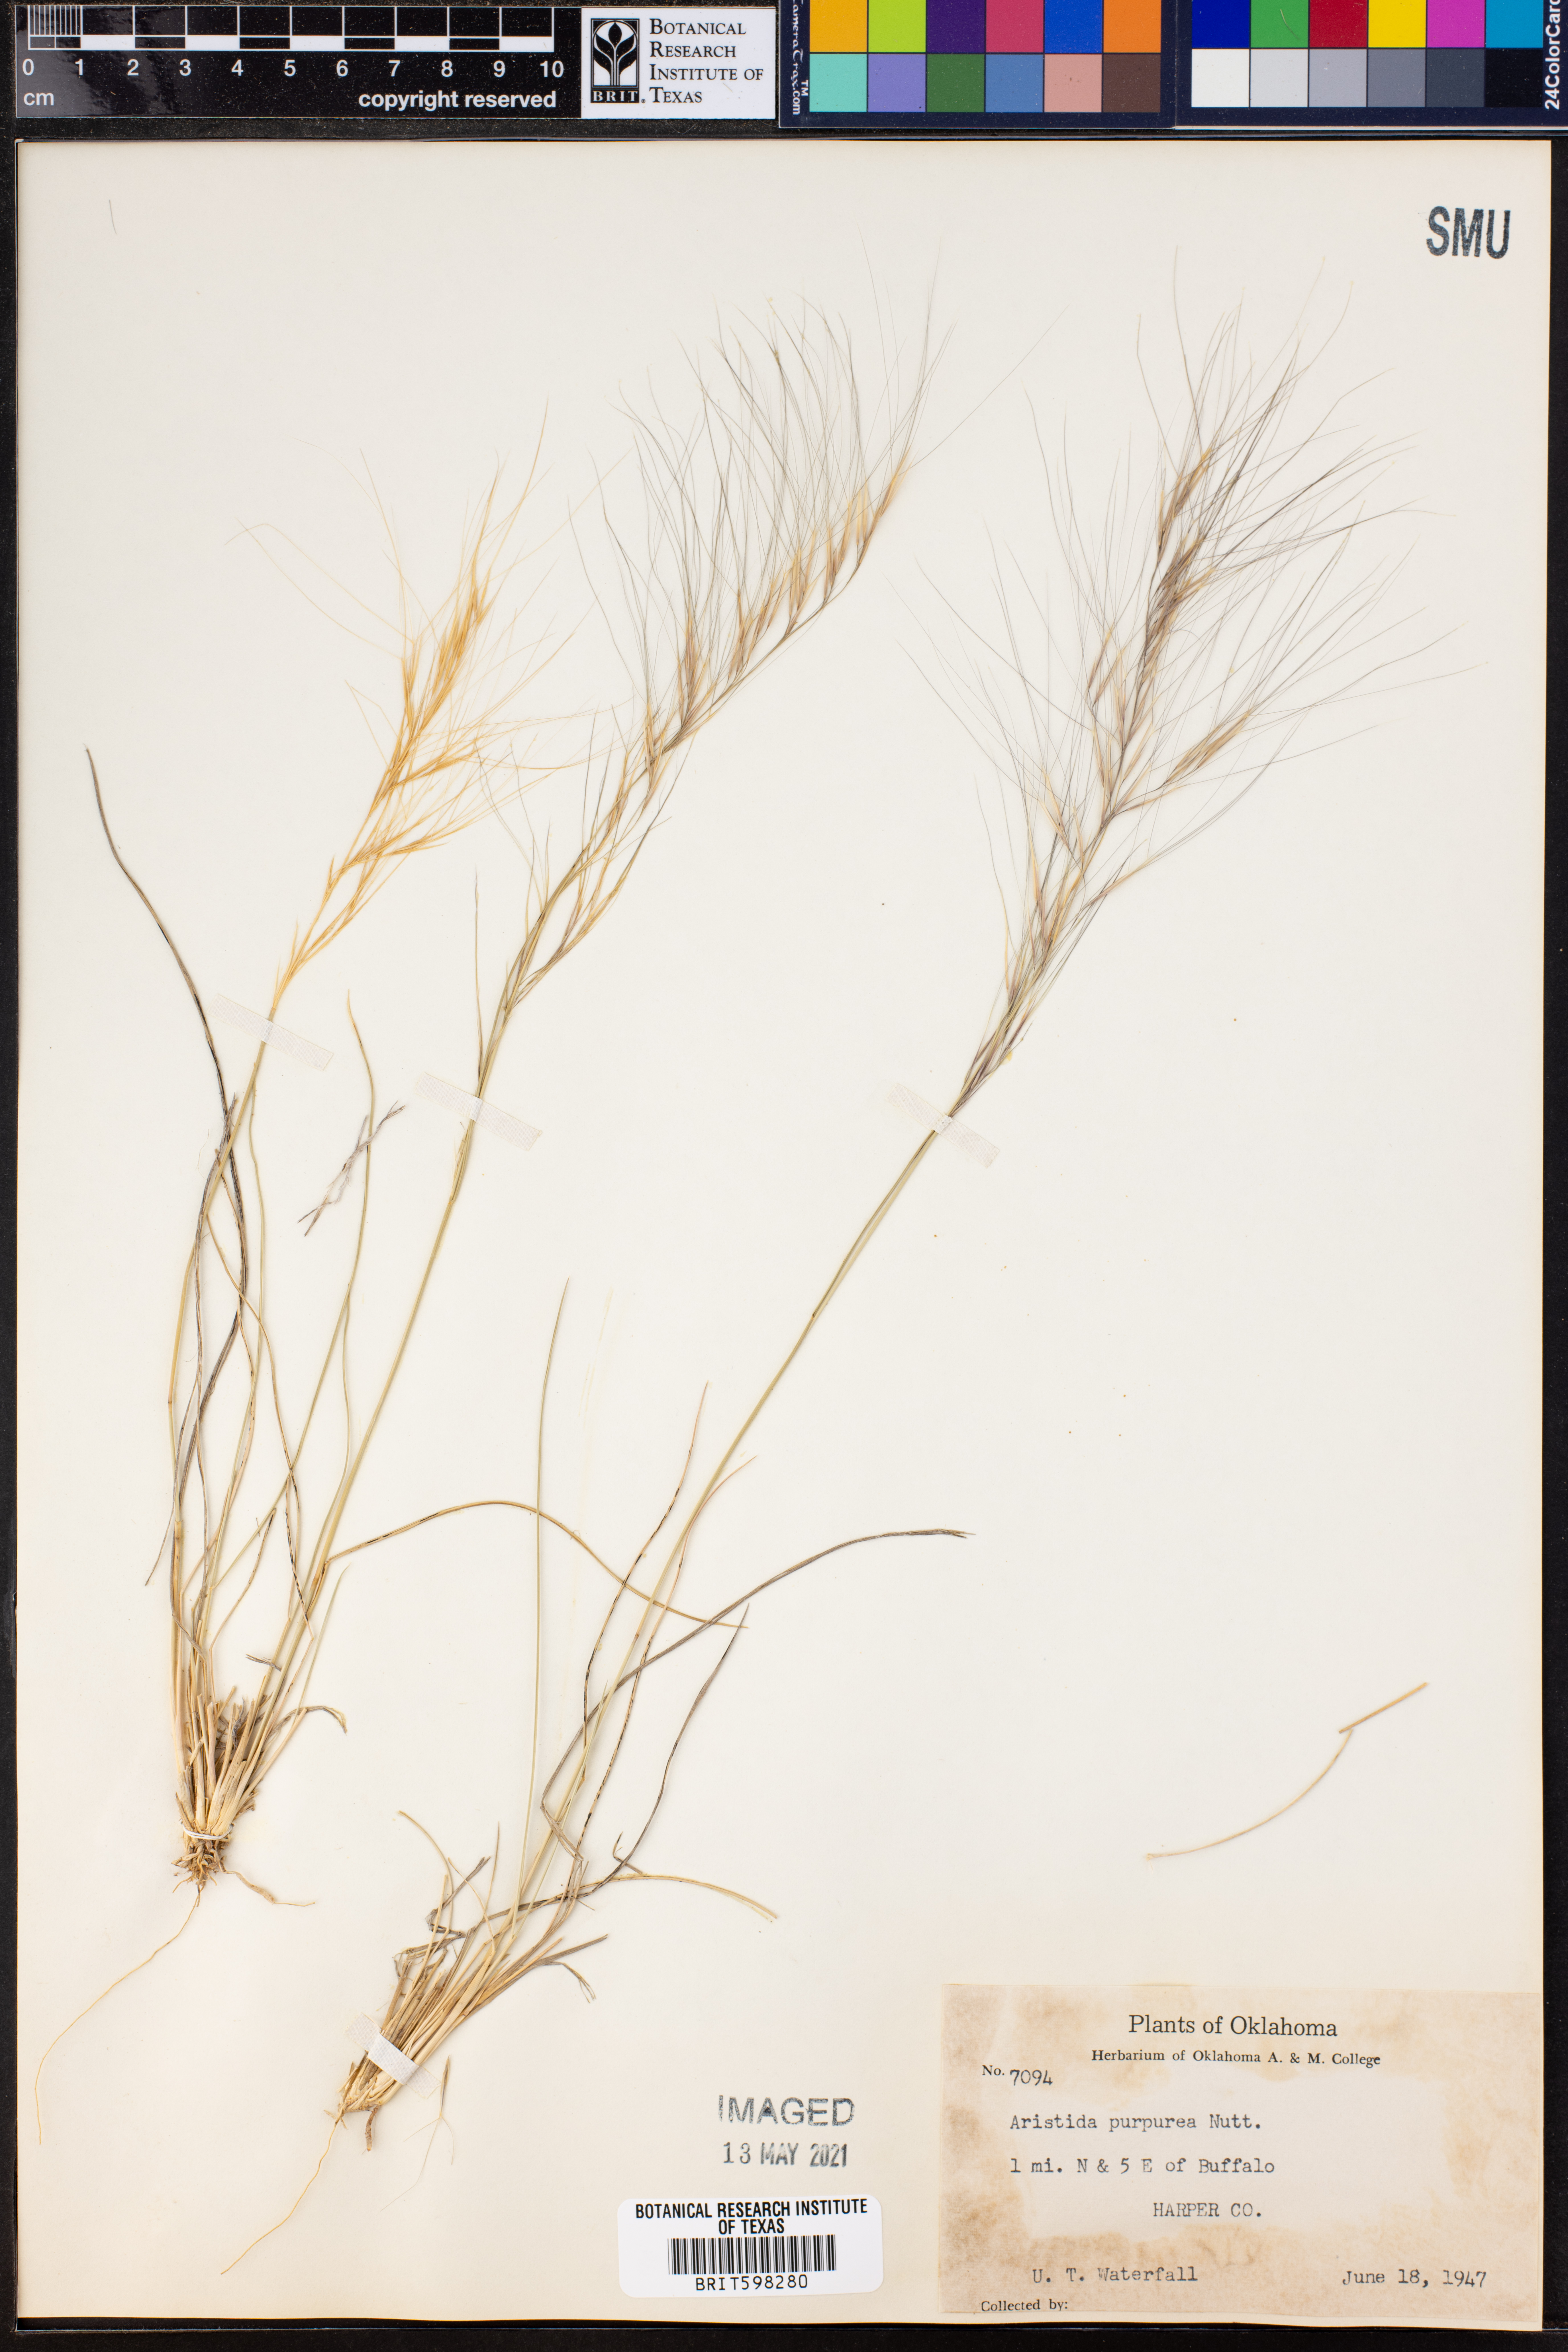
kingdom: Plantae
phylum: Tracheophyta
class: Liliopsida
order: Poales
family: Poaceae
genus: Aristida
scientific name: Aristida purpurea
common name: Purple threeawn
